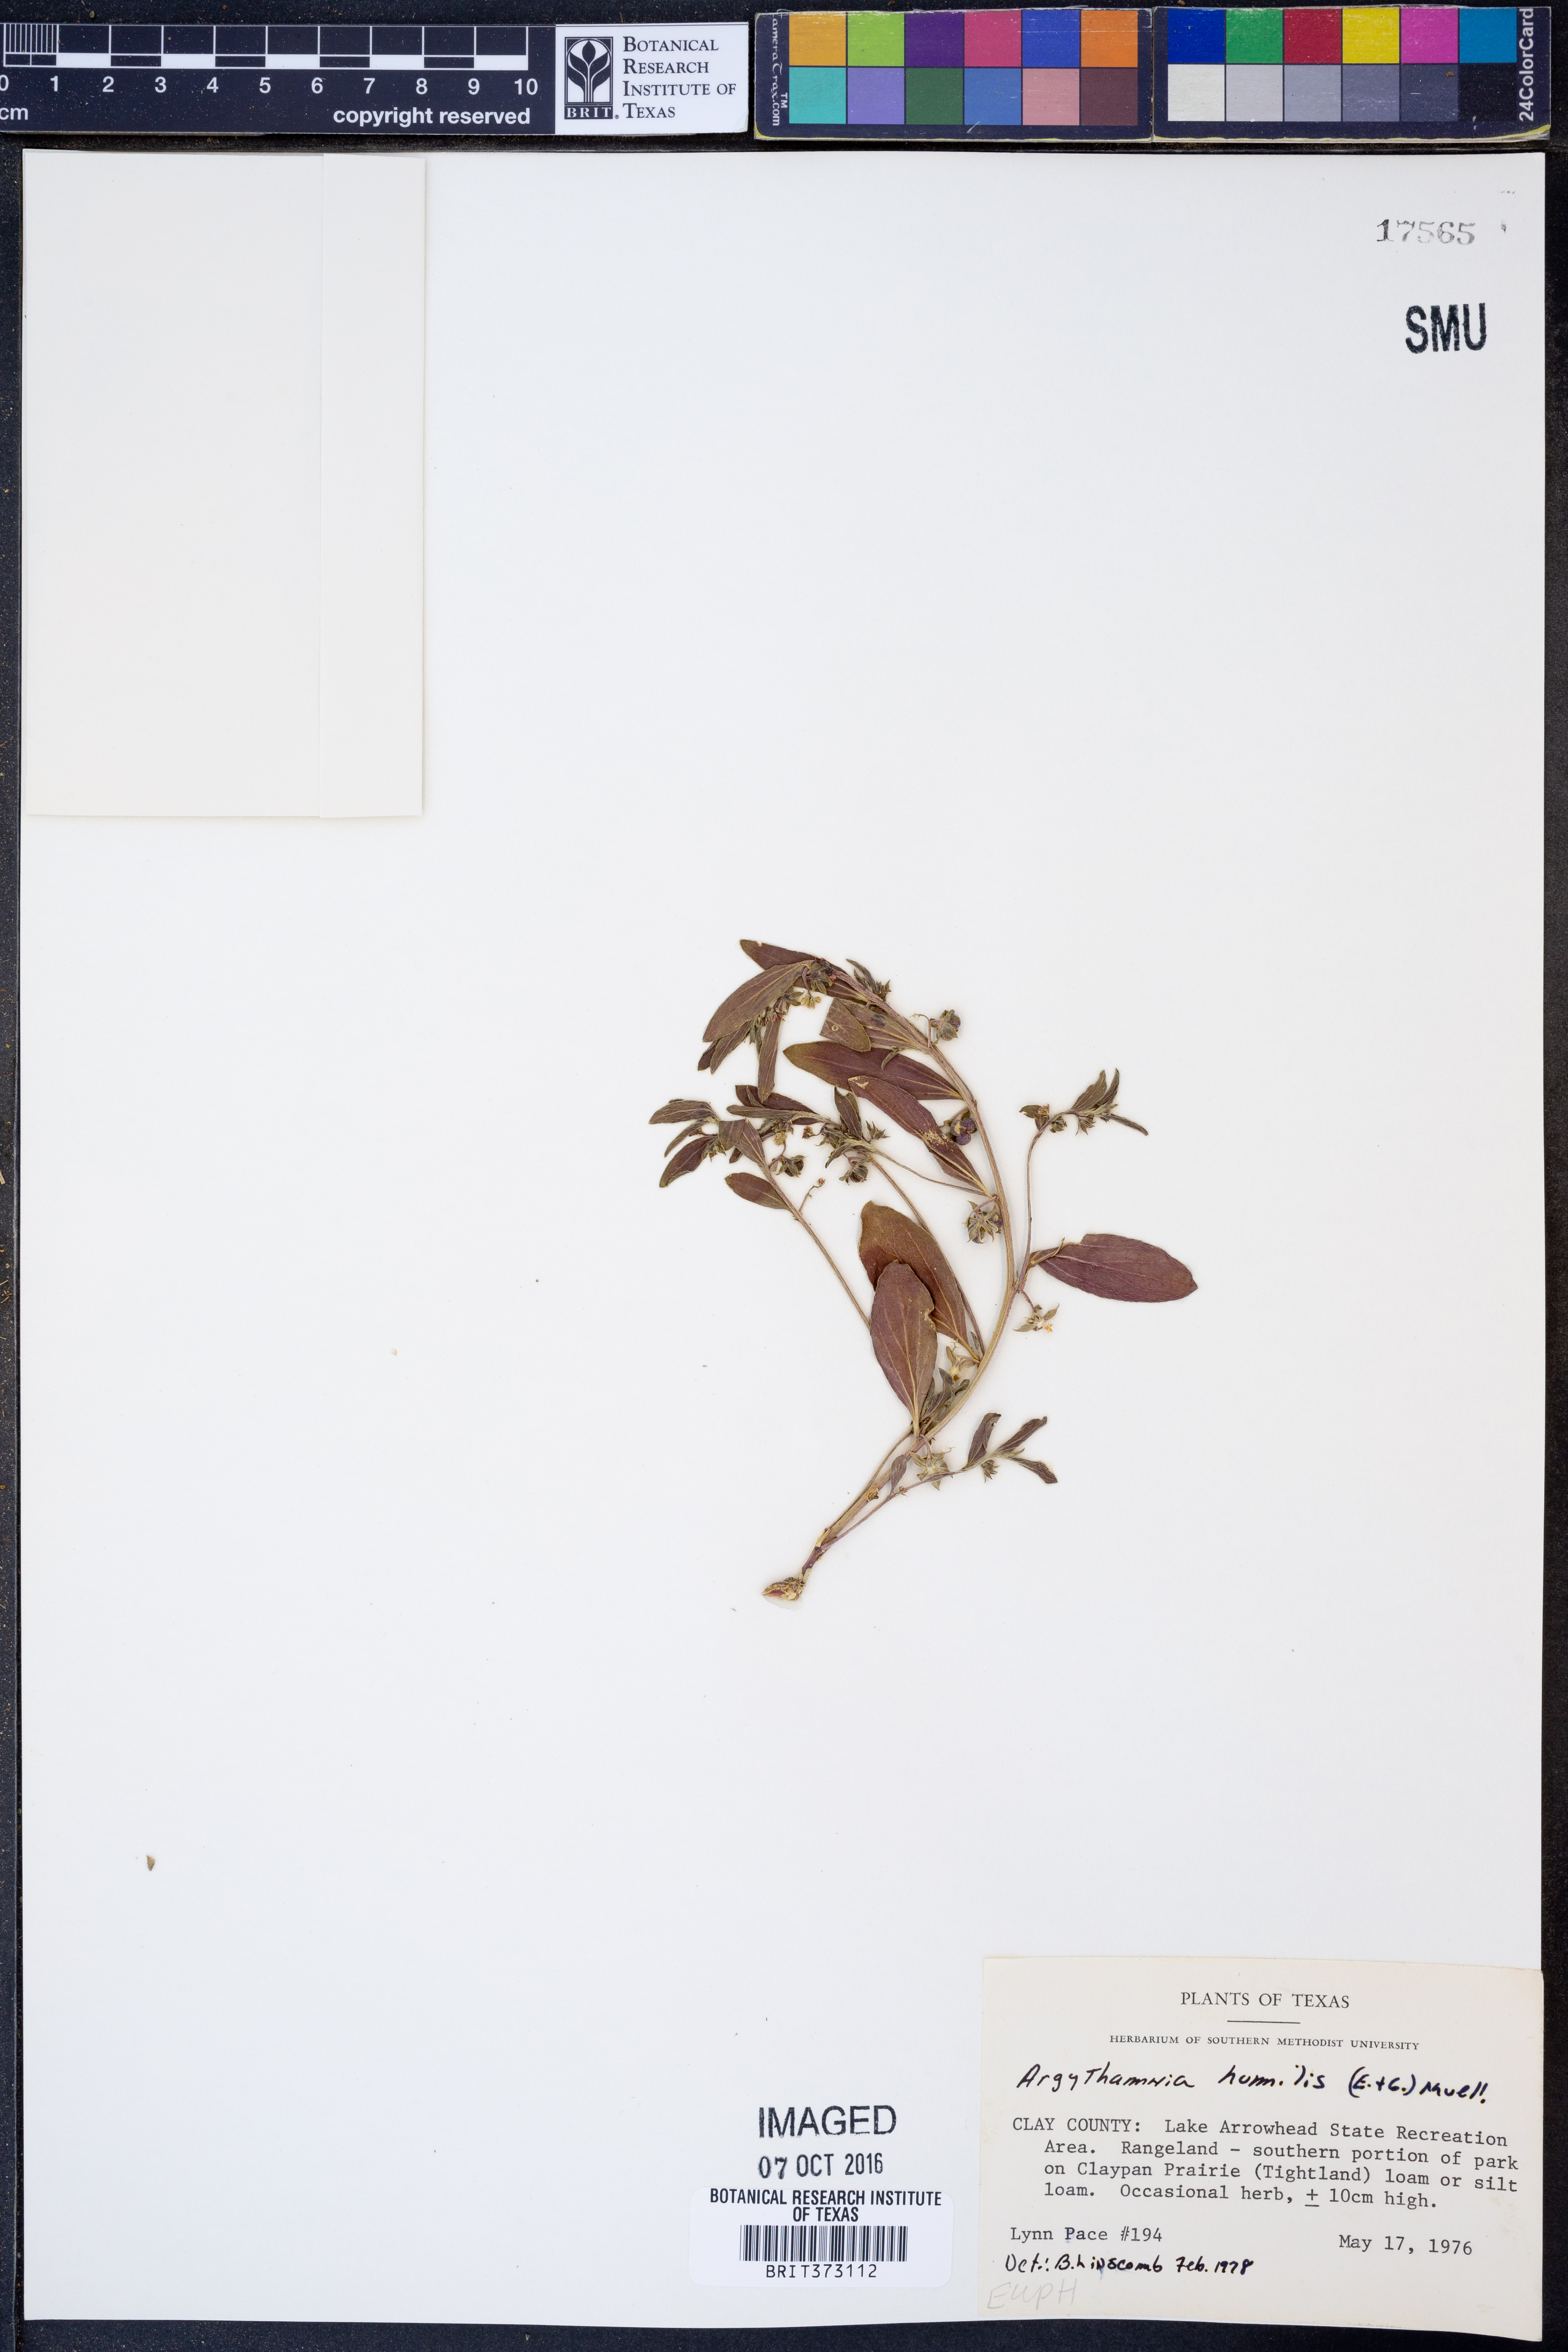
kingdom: Plantae
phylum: Tracheophyta
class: Magnoliopsida
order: Malpighiales
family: Euphorbiaceae
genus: Ditaxis
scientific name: Ditaxis humilis
